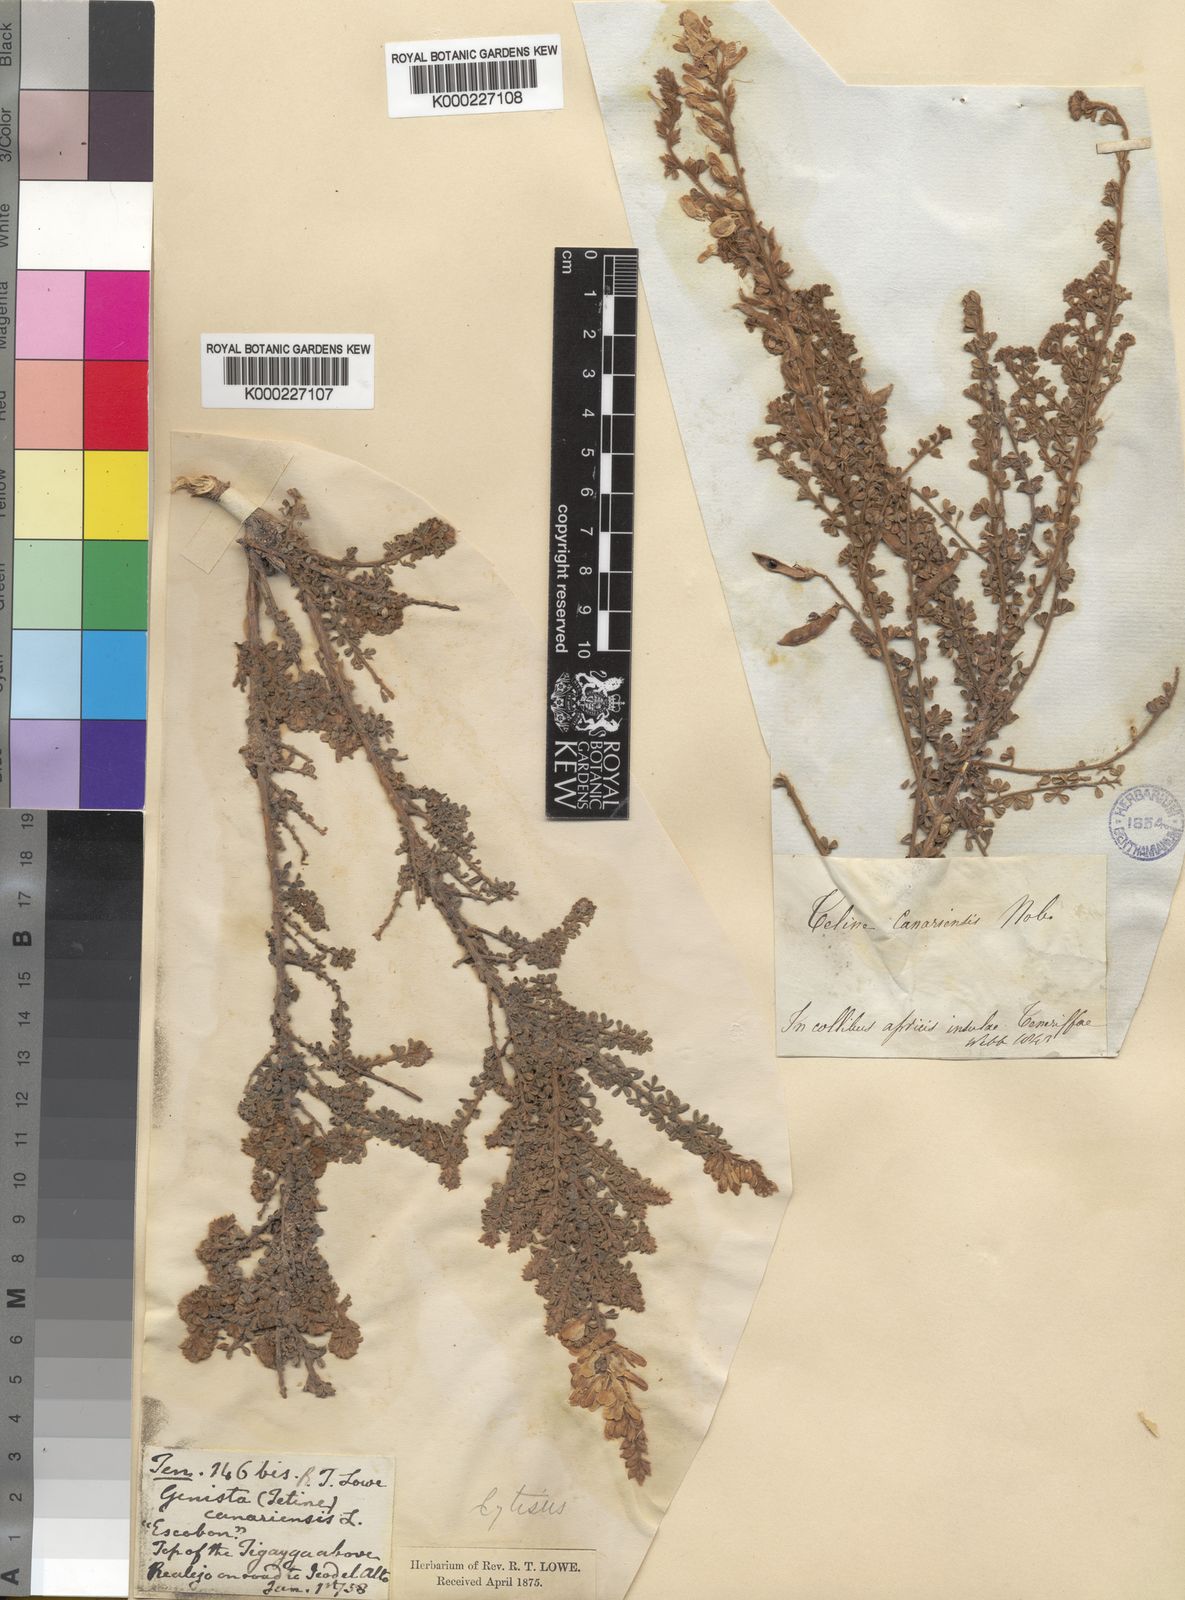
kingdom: Plantae
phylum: Tracheophyta
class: Magnoliopsida
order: Fabales
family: Fabaceae
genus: Genista
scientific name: Genista canariensis
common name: Canary broom
